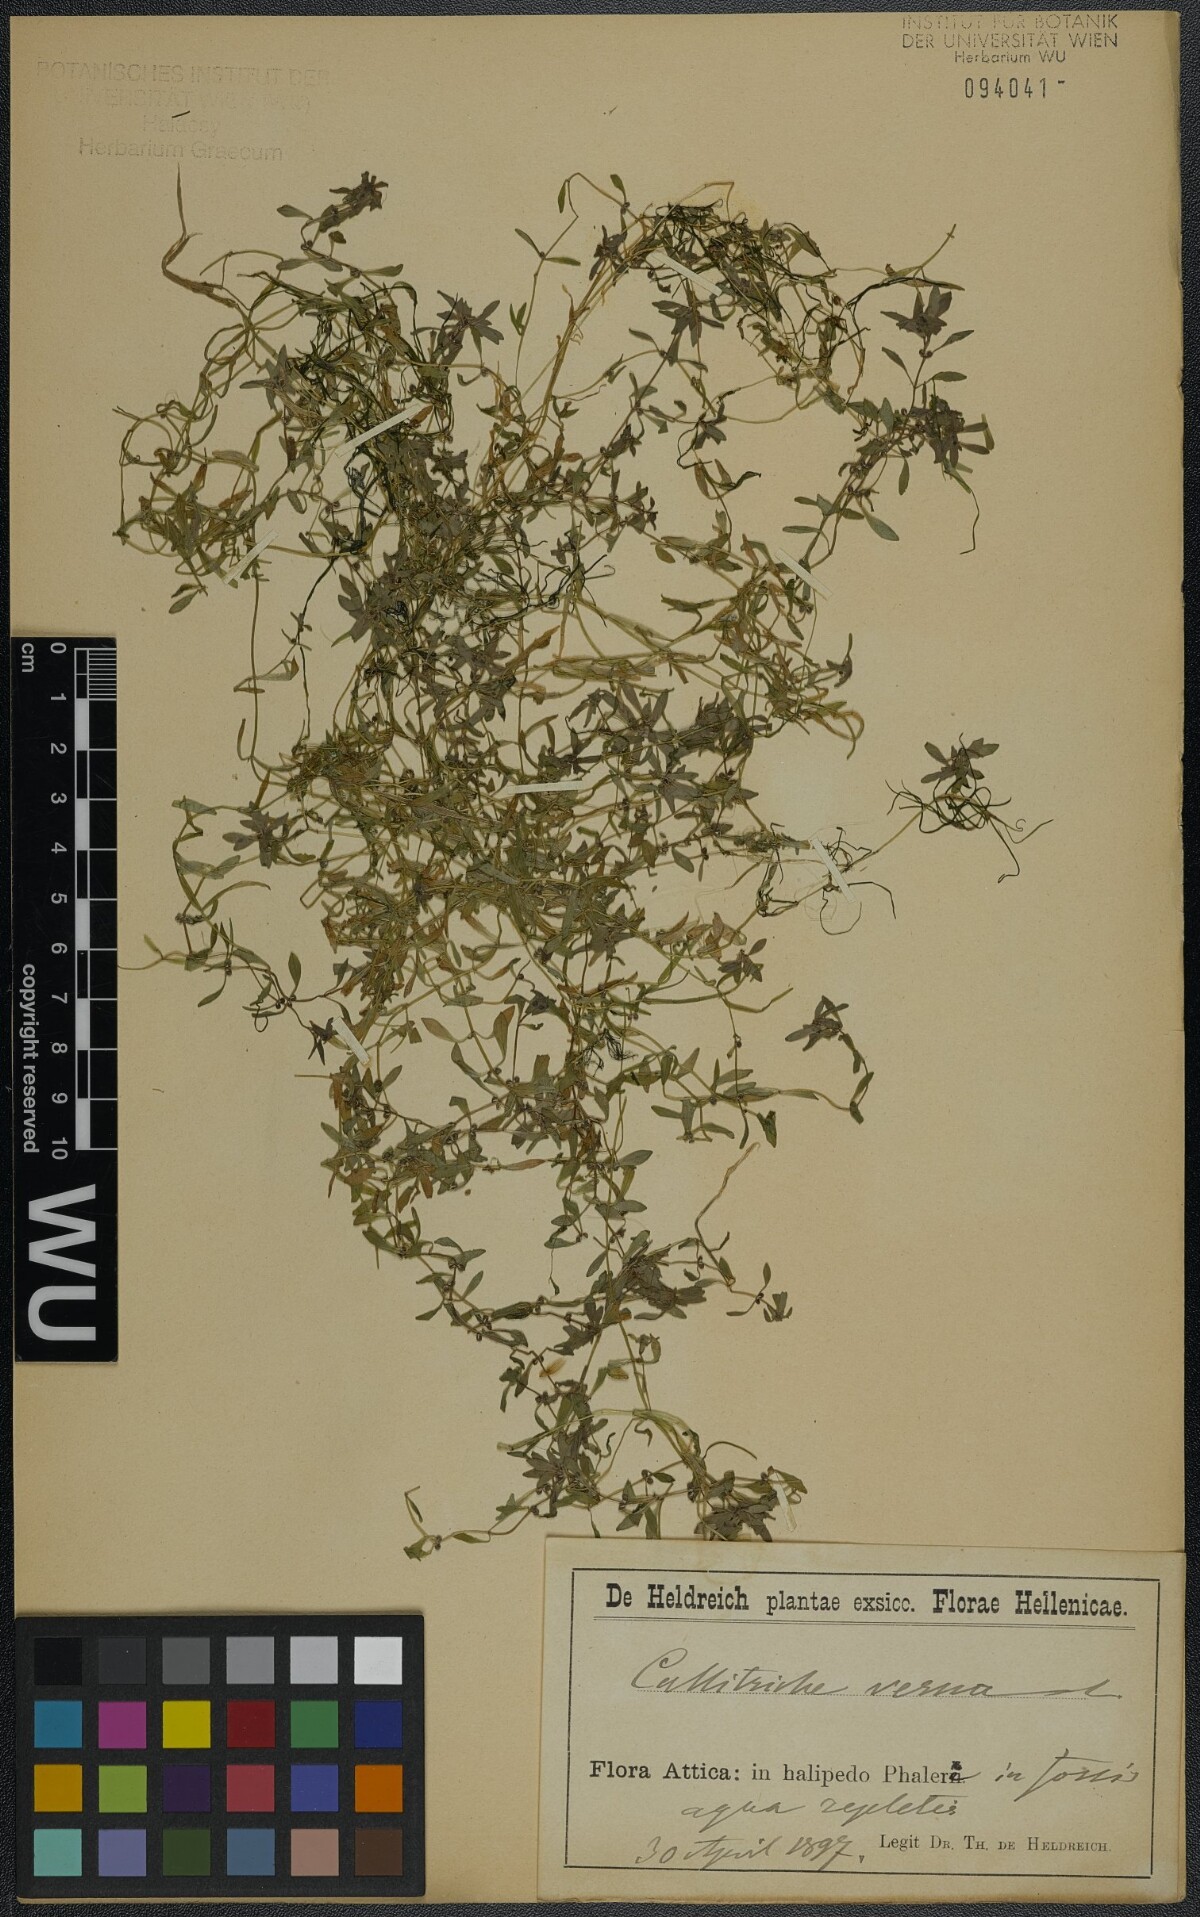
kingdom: Plantae
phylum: Tracheophyta
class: Magnoliopsida
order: Lamiales
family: Plantaginaceae
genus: Callitriche
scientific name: Callitriche lenisulca
